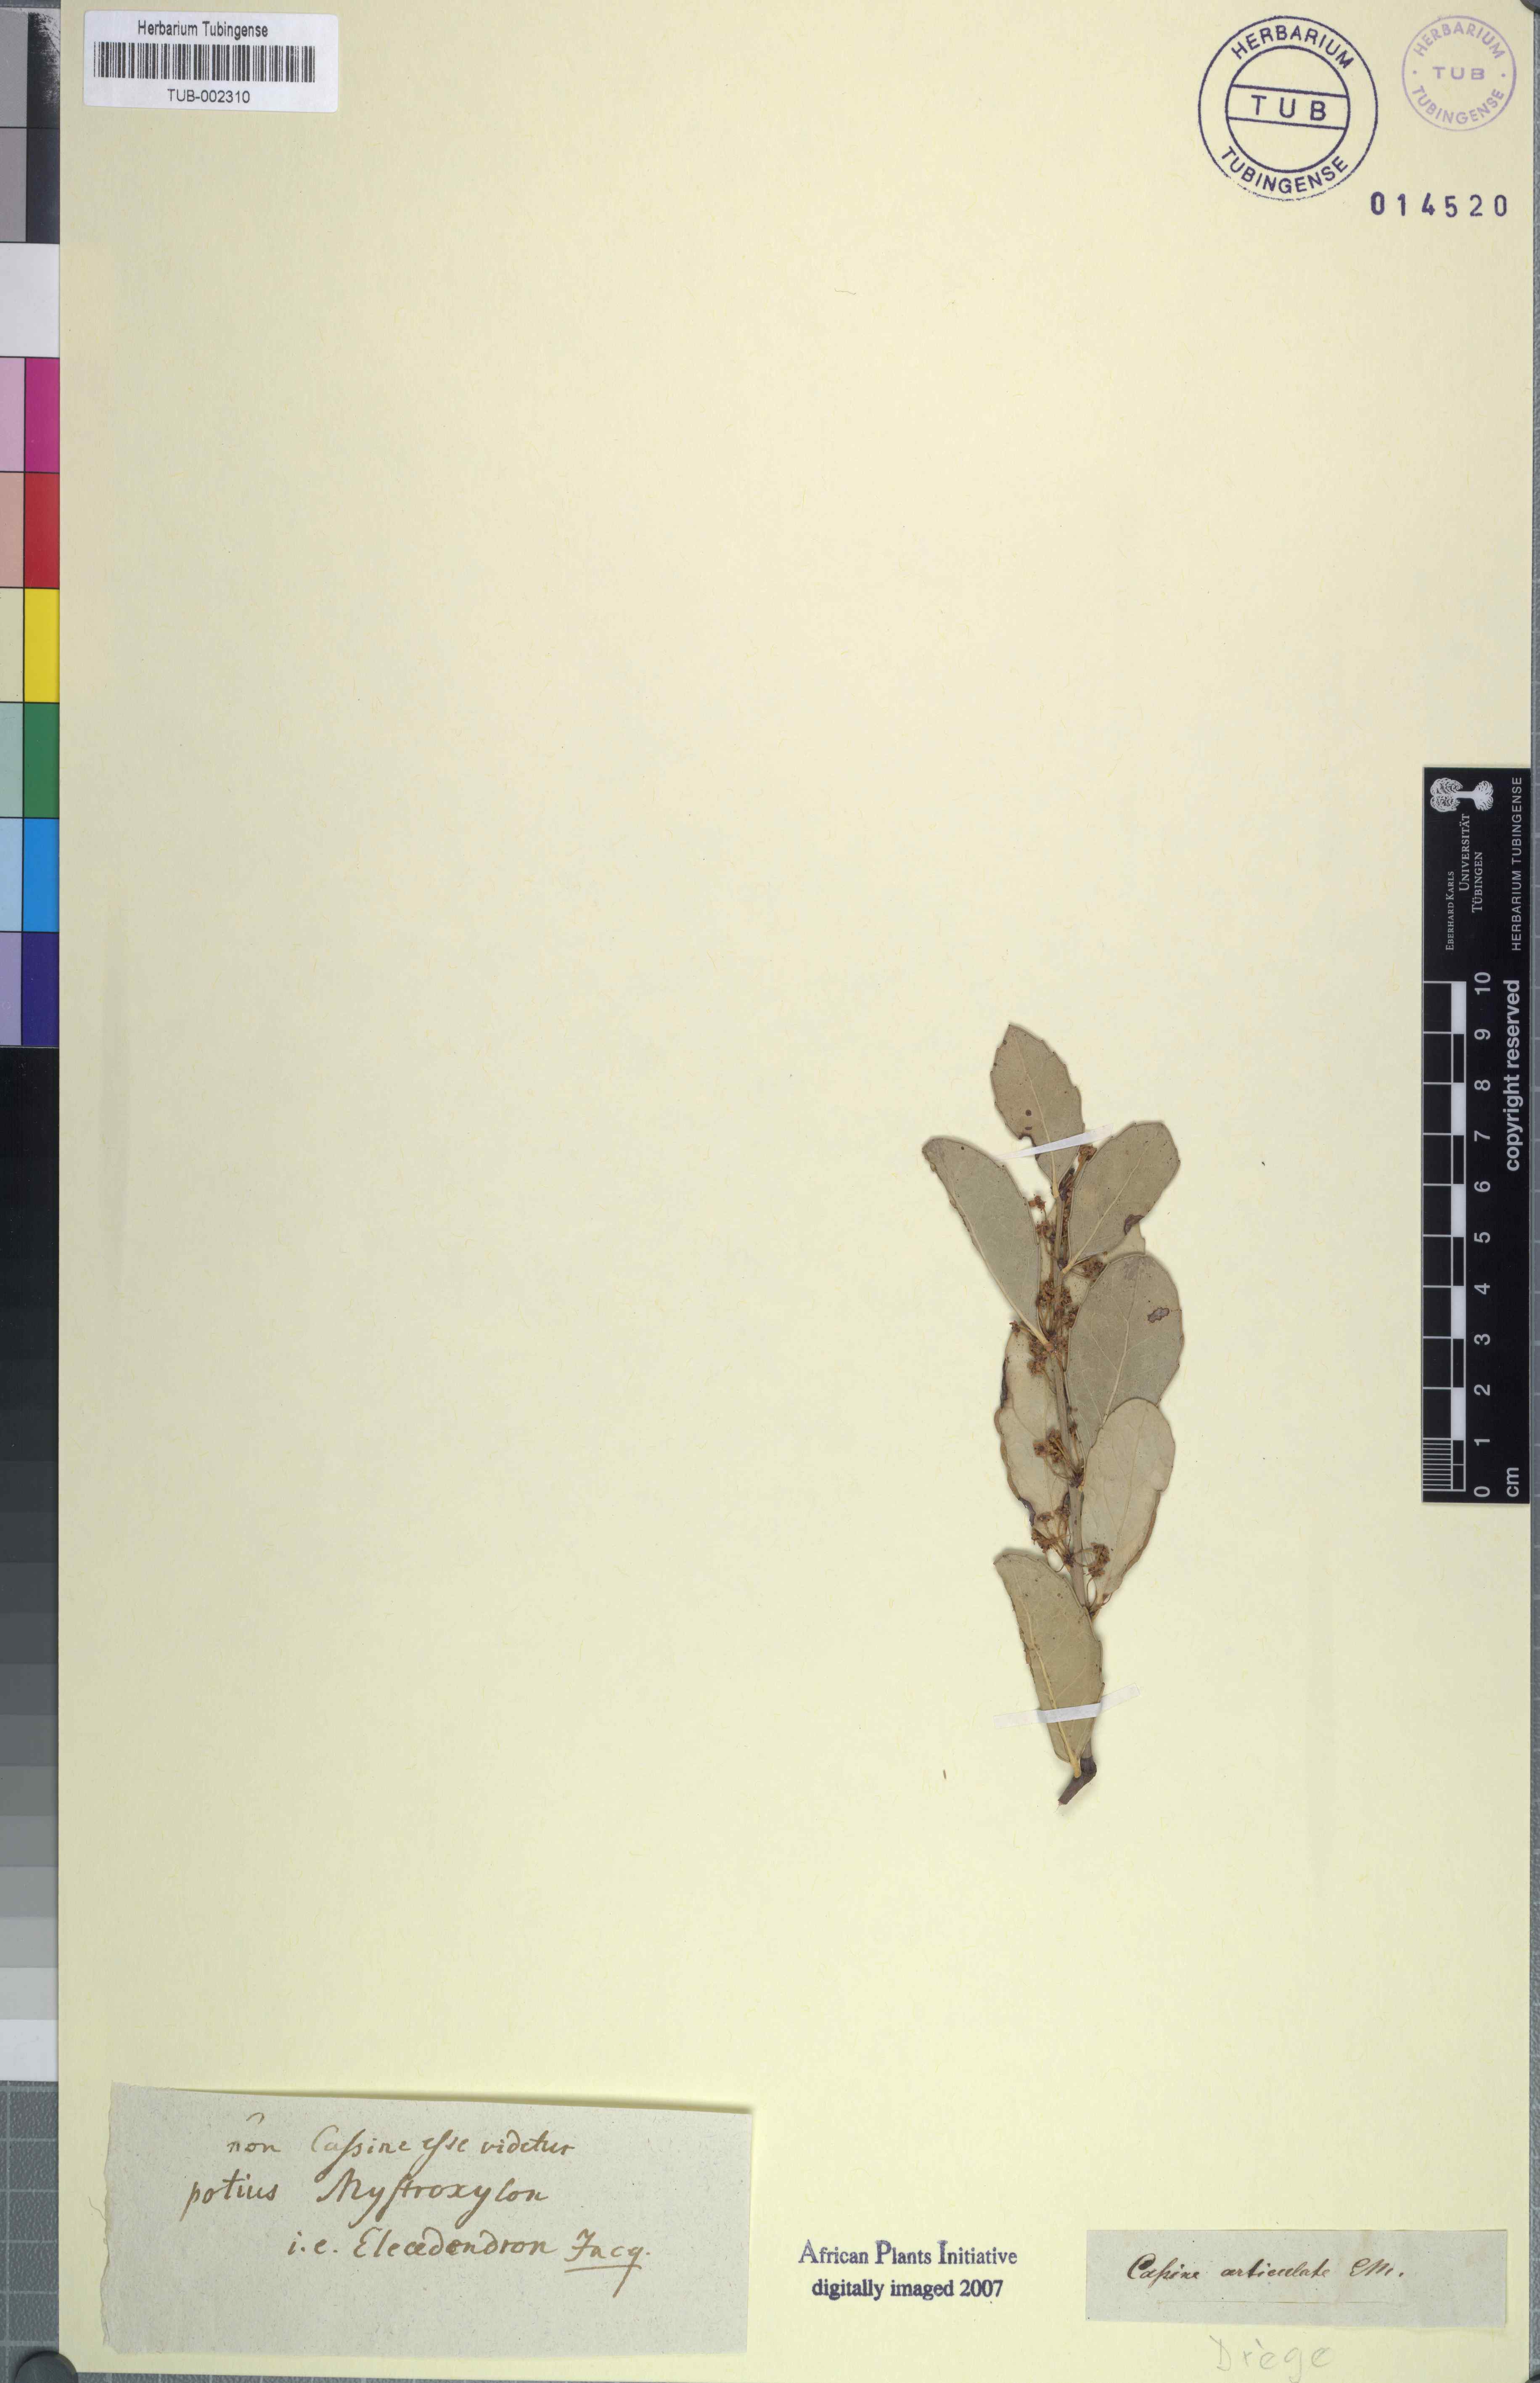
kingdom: Plantae
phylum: Tracheophyta
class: Magnoliopsida
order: Celastrales
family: Celastraceae
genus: Gymnosporia
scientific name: Gymnosporia procumbens
